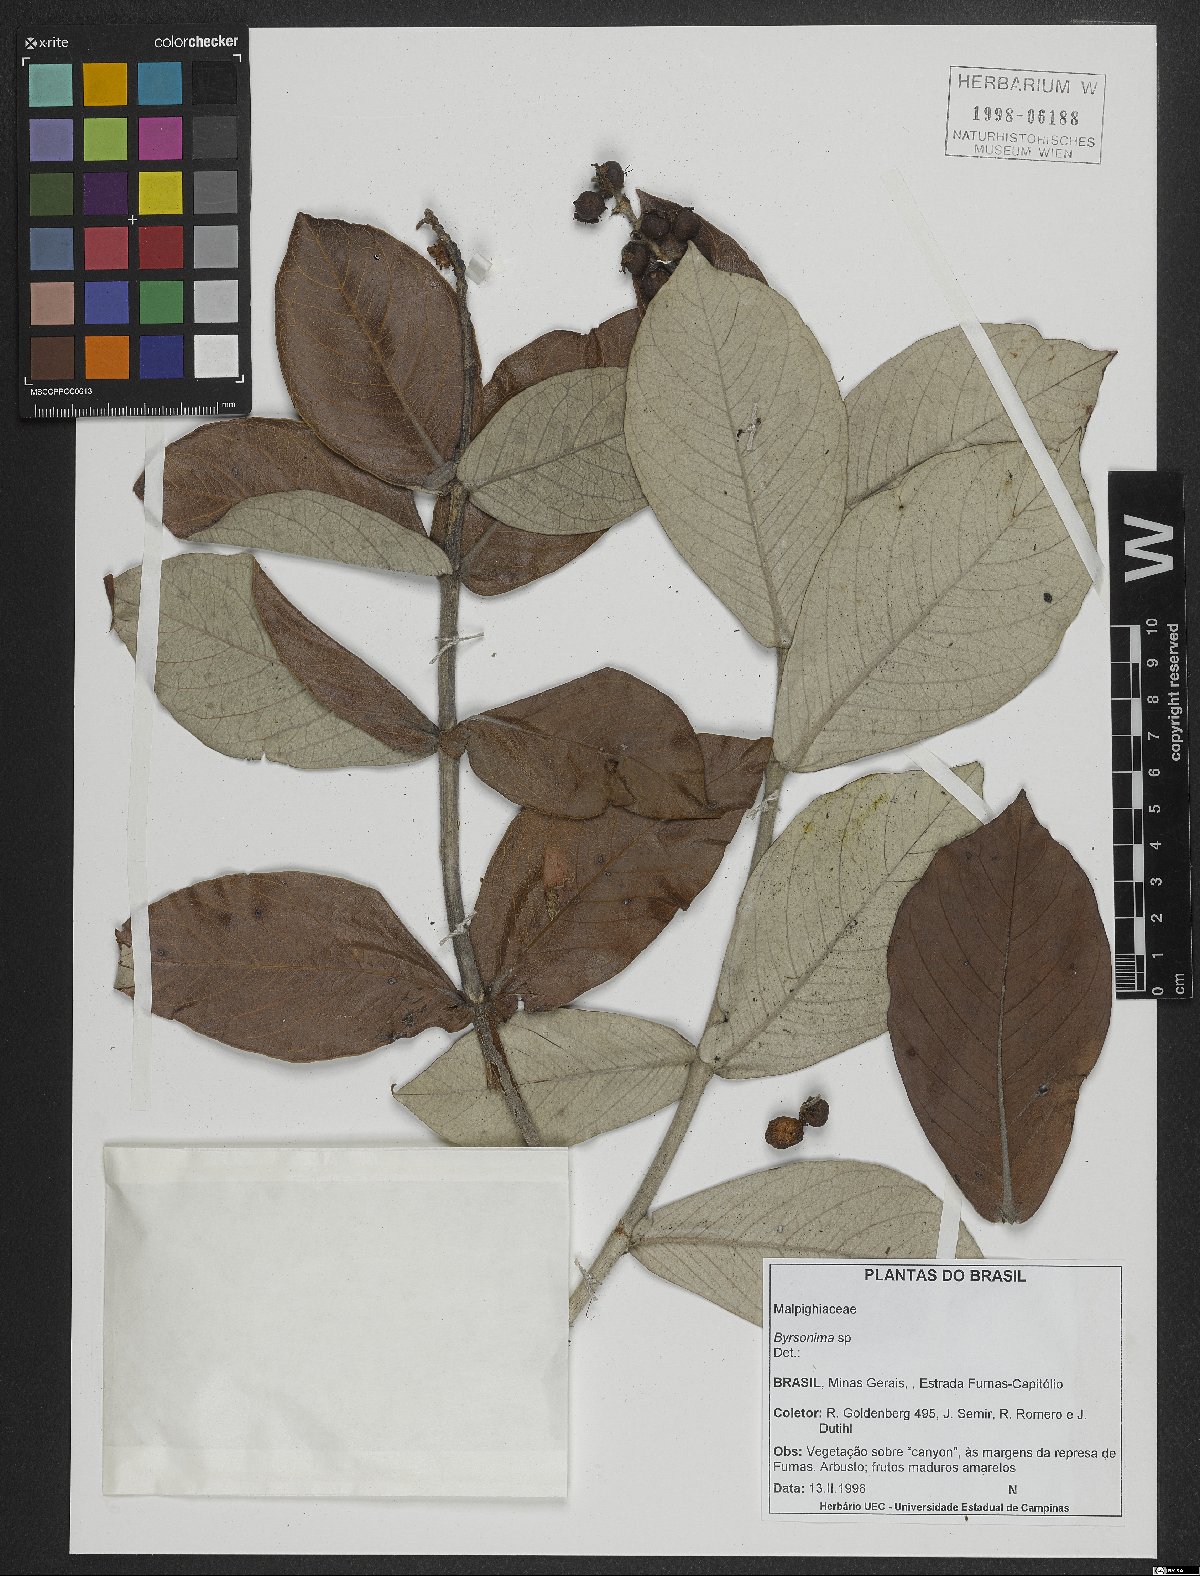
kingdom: Plantae
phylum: Tracheophyta
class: Magnoliopsida
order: Malpighiales
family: Malpighiaceae
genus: Byrsonima
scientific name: Byrsonima
